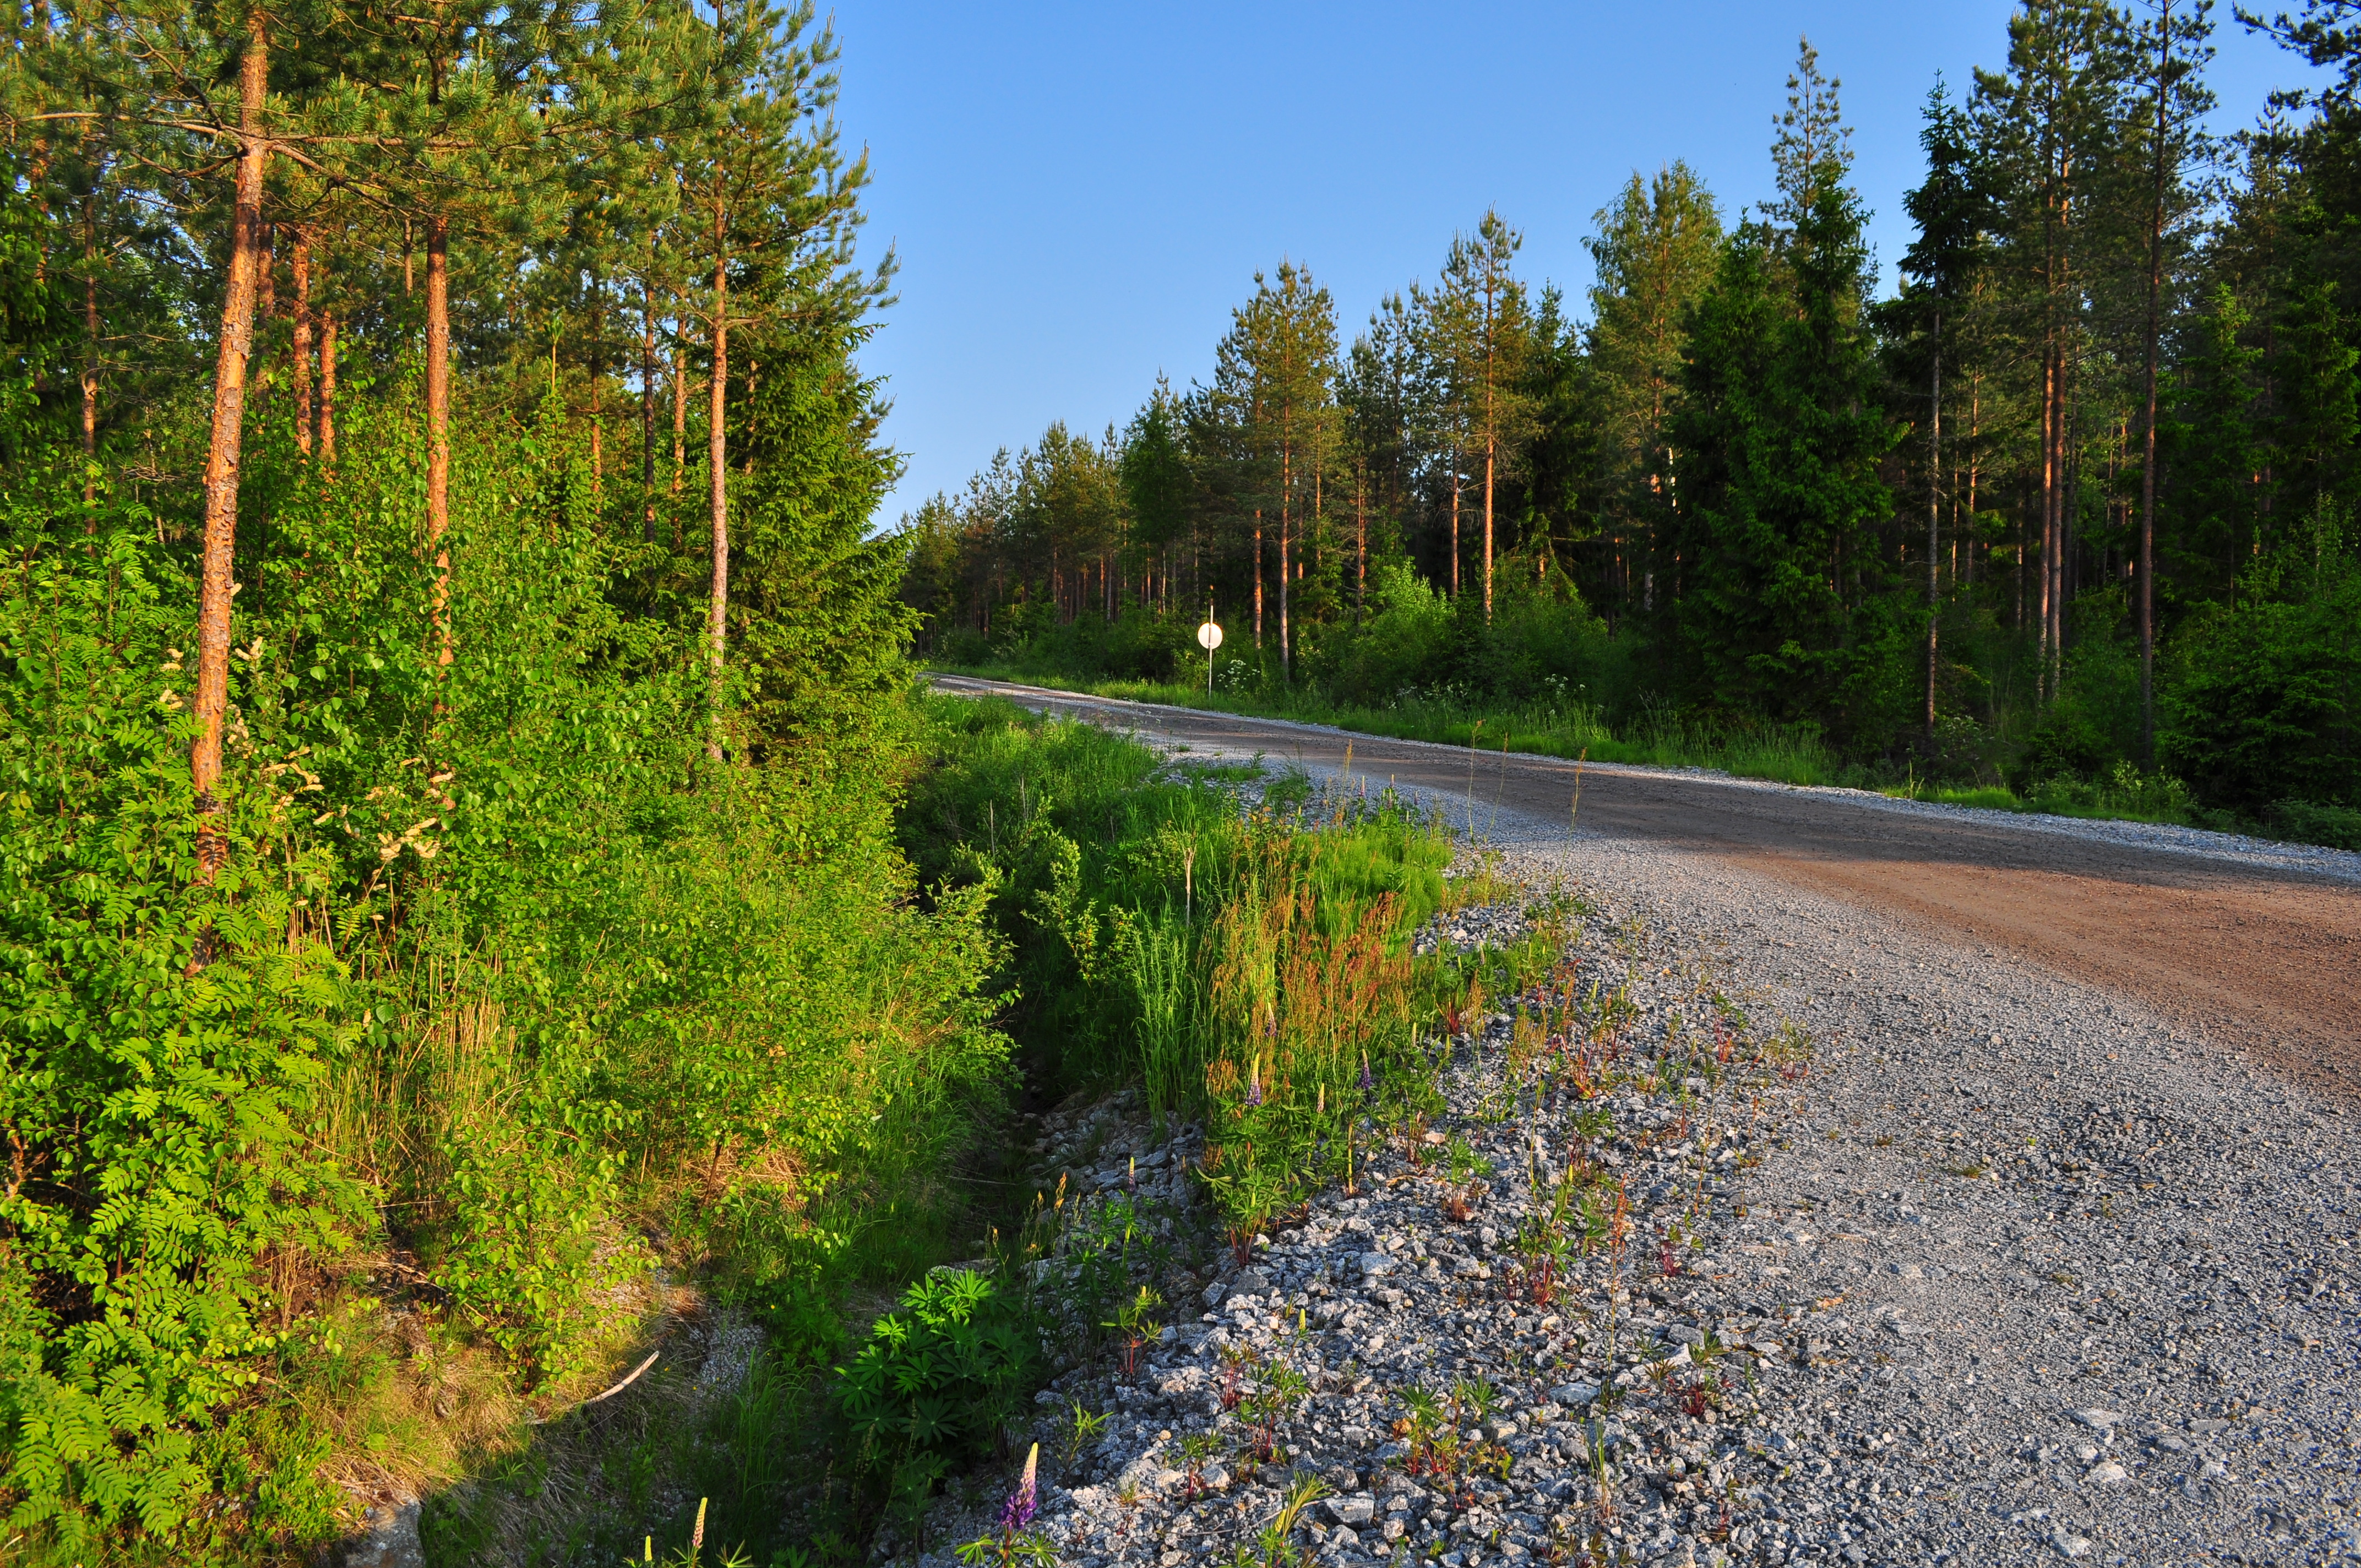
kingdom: Plantae
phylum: Tracheophyta
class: Magnoliopsida
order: Fabales
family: Fabaceae
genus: Lupinus
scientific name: Lupinus polyphyllus
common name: Garden lupin
